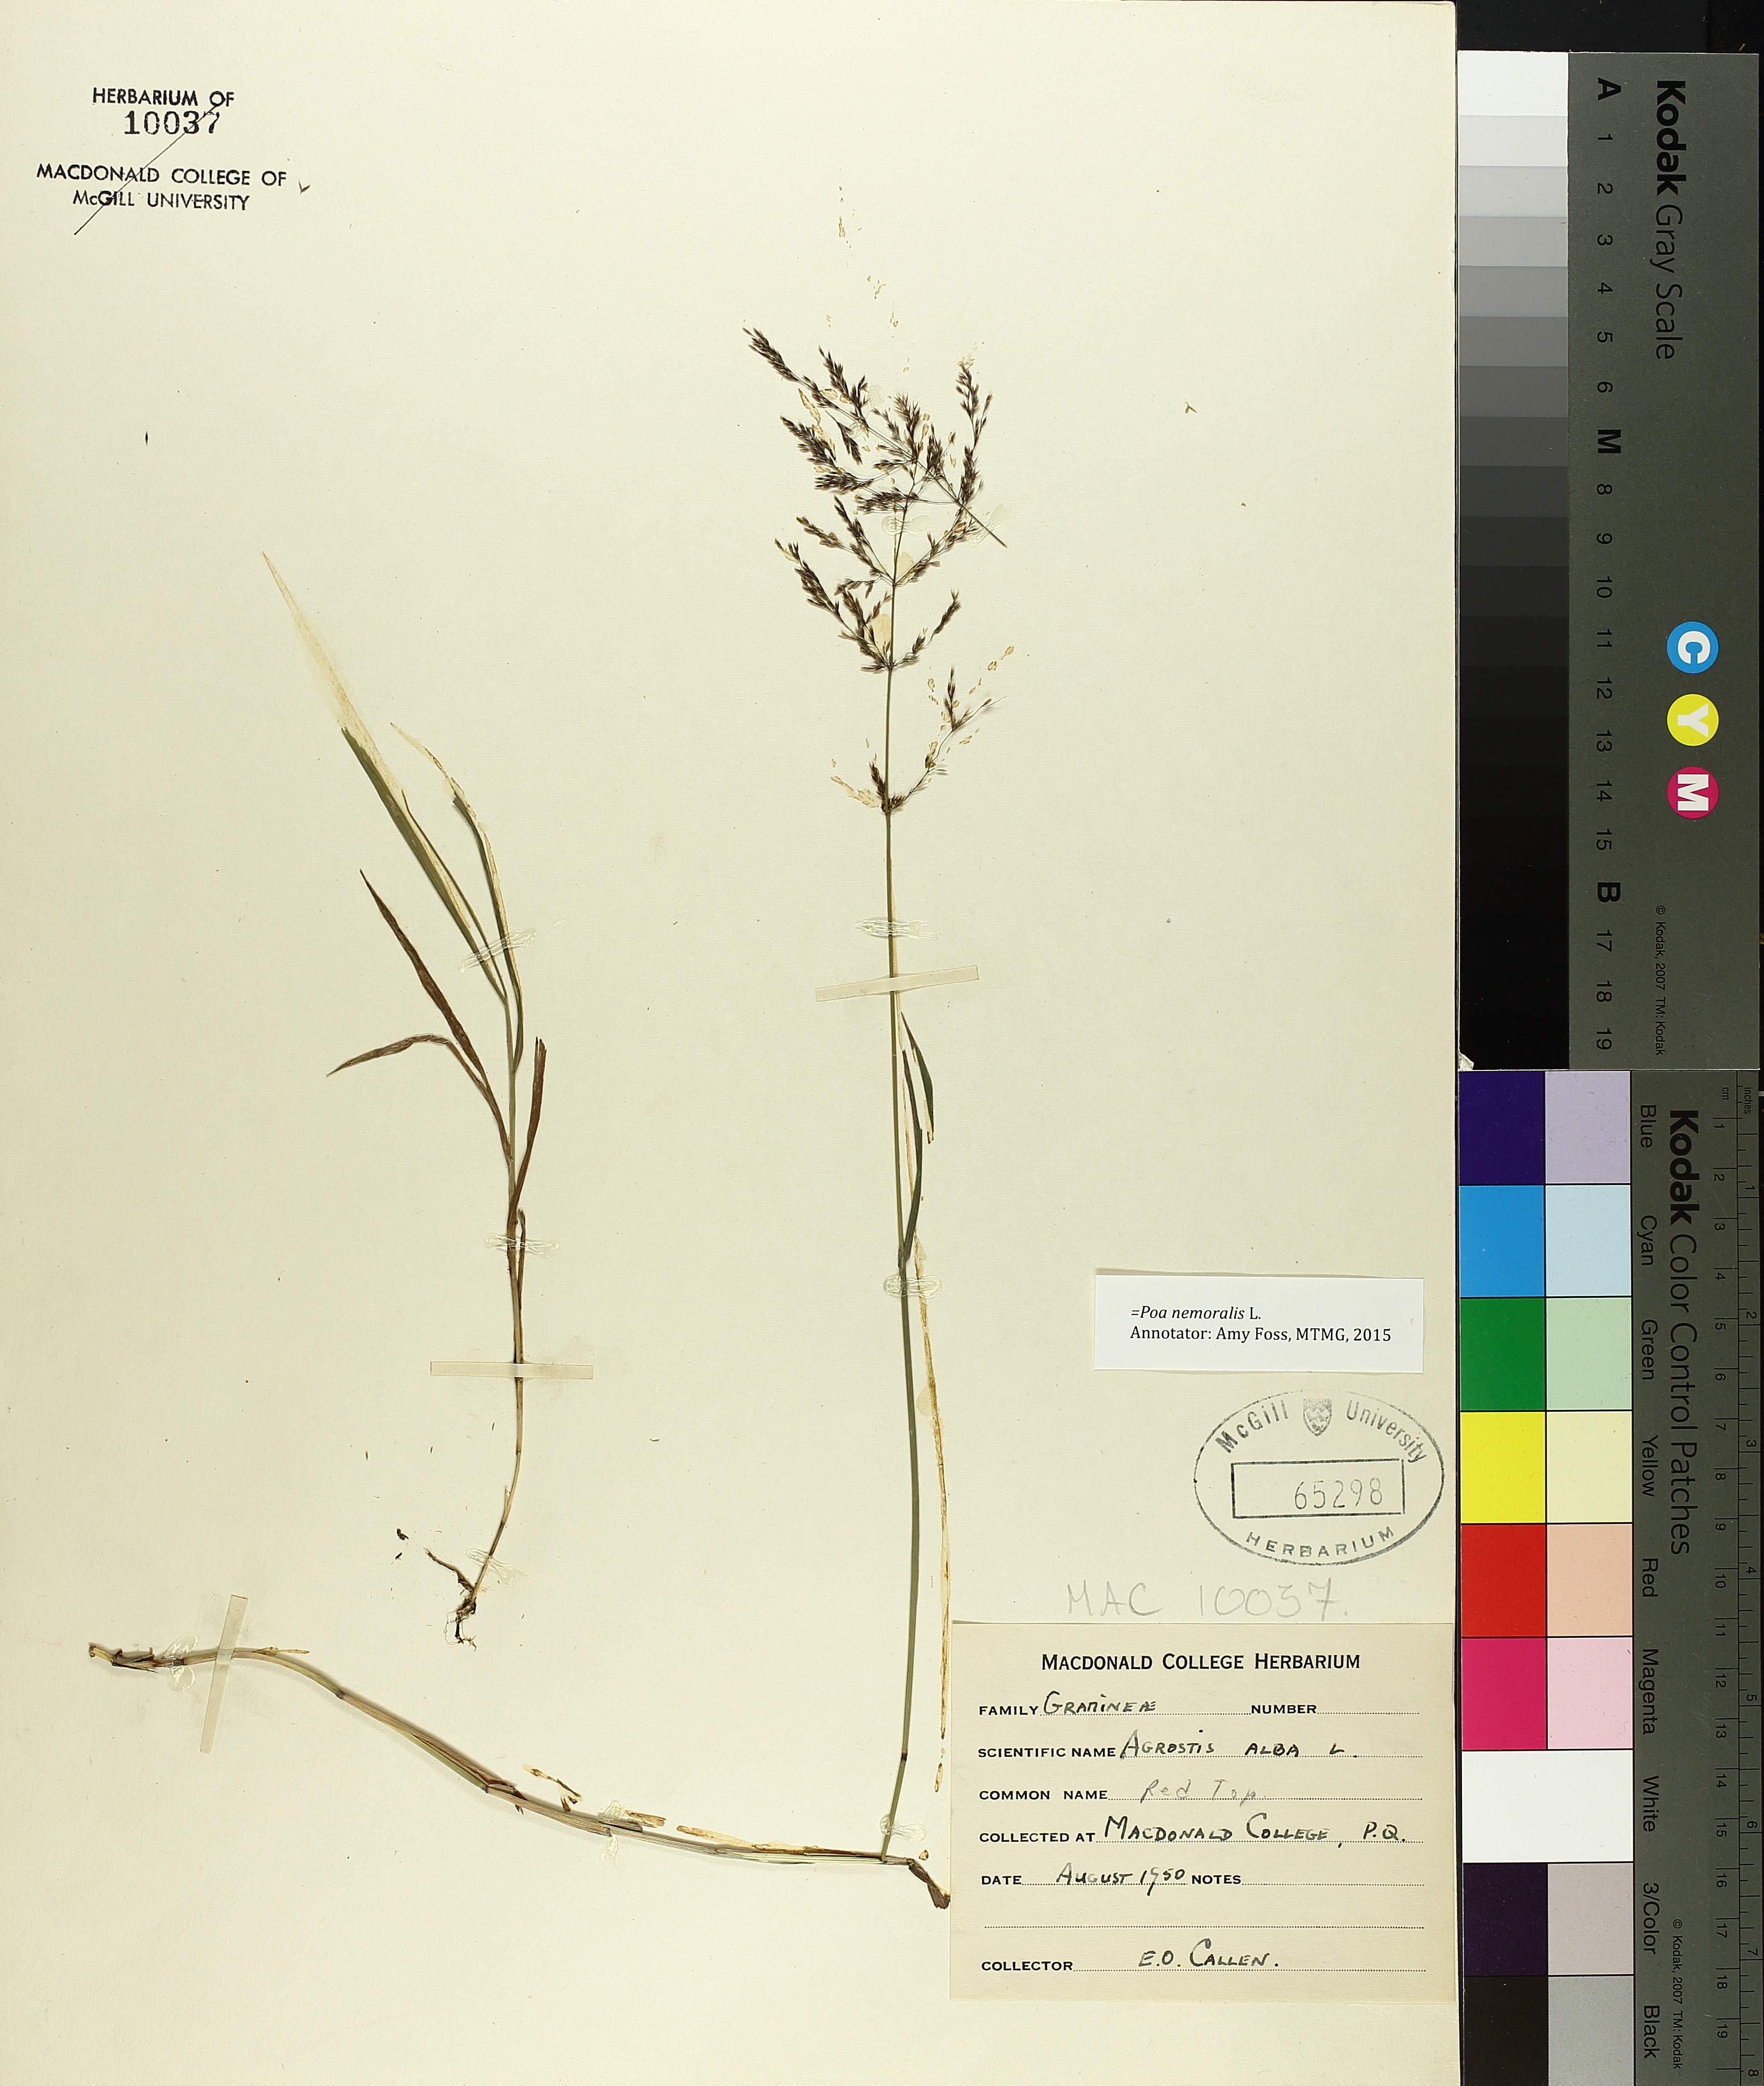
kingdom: Plantae
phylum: Tracheophyta
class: Pinopsida
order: Pinales
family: Pinaceae
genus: Pinus
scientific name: Pinus banksiana
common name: Jack pine
